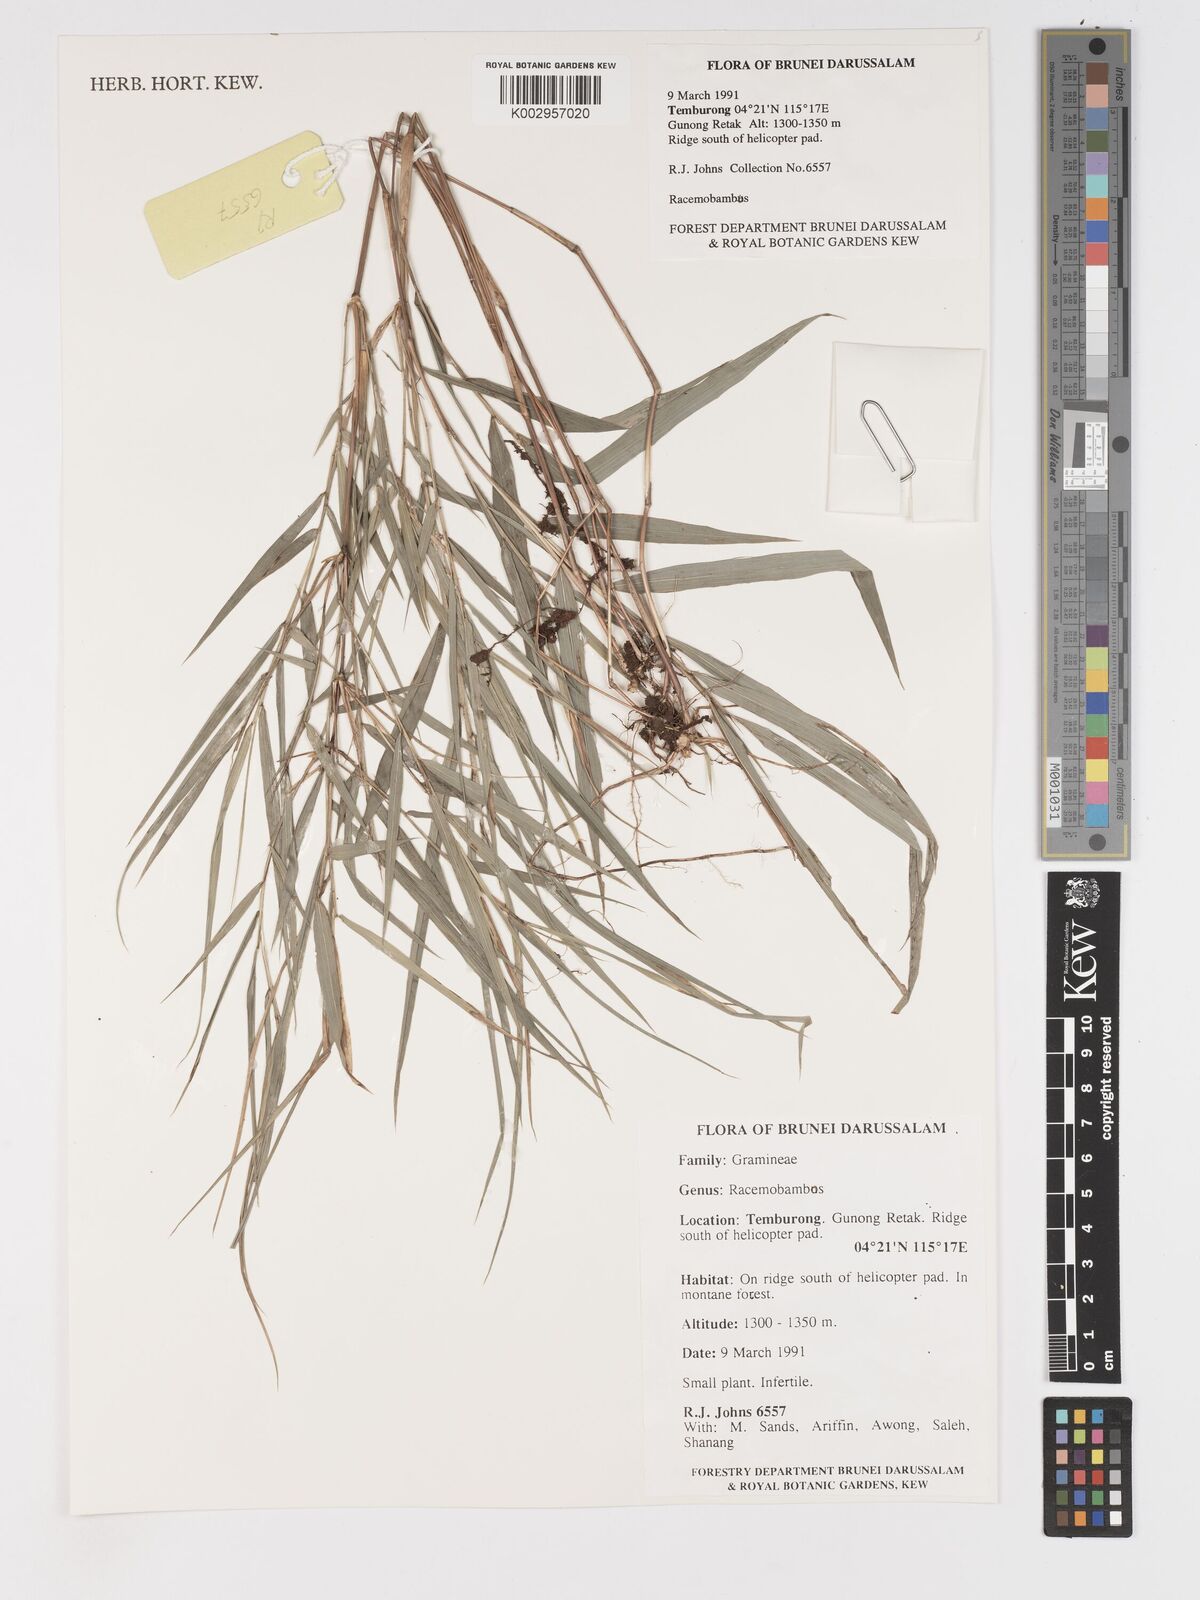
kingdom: Plantae
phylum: Tracheophyta
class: Liliopsida
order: Poales
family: Poaceae
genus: Racemobambos
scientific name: Racemobambos
